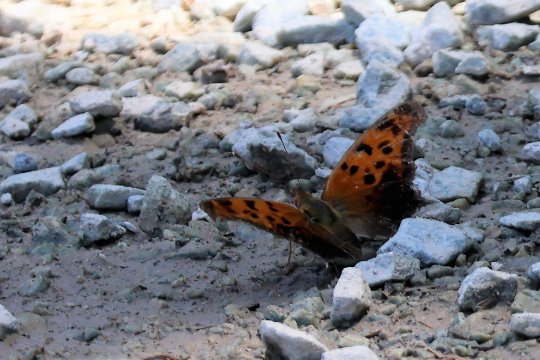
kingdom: Animalia
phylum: Arthropoda
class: Insecta
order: Lepidoptera
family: Nymphalidae
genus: Polygonia
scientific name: Polygonia interrogationis
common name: Question Mark
